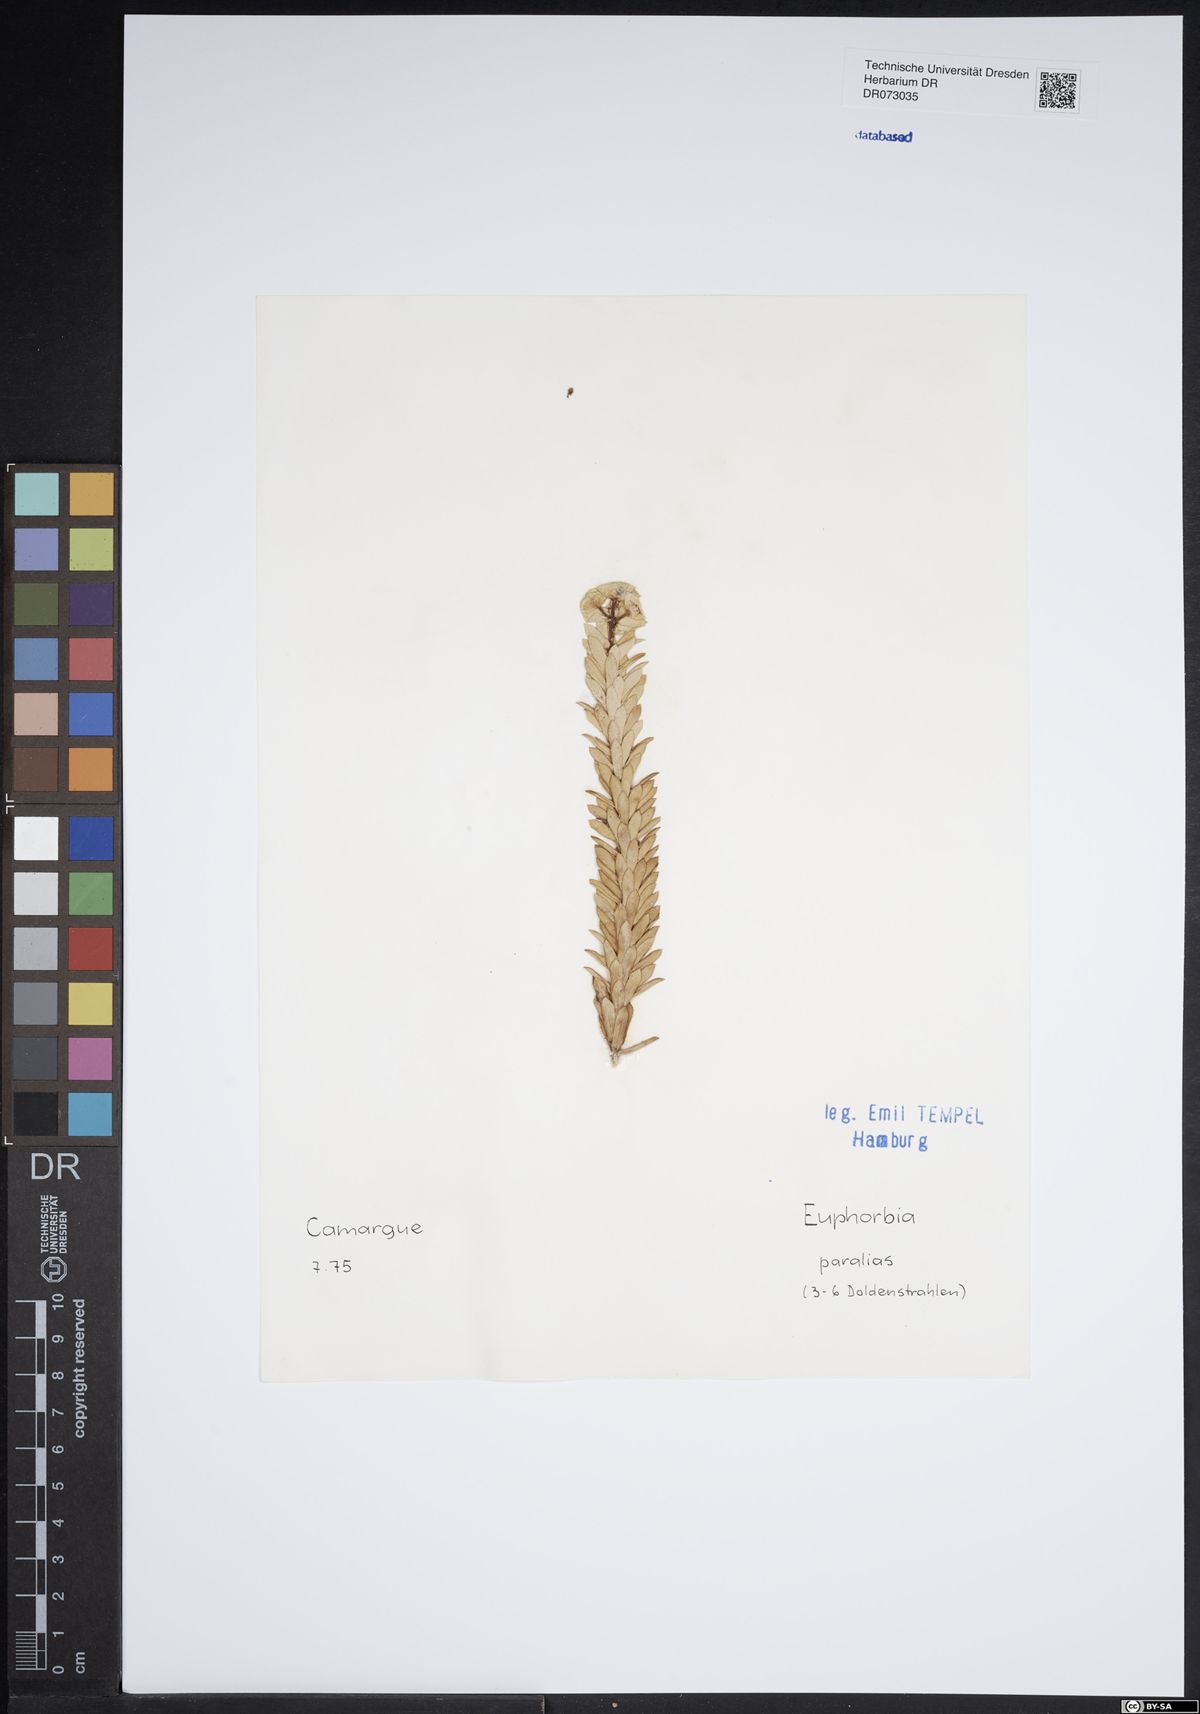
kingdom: Plantae
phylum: Tracheophyta
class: Magnoliopsida
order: Malpighiales
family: Euphorbiaceae
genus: Euphorbia
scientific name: Euphorbia aleppica
